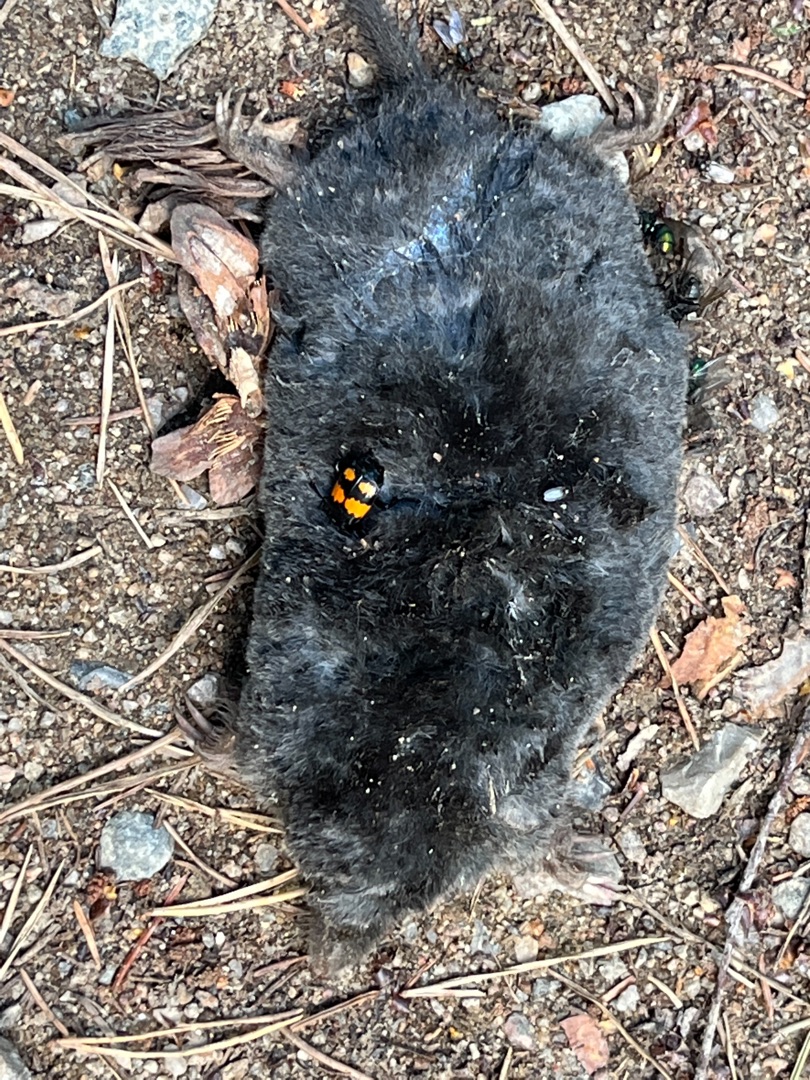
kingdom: Animalia
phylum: Chordata
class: Mammalia
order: Soricomorpha
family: Talpidae
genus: Talpa
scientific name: Talpa europaea
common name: Muldvarp
